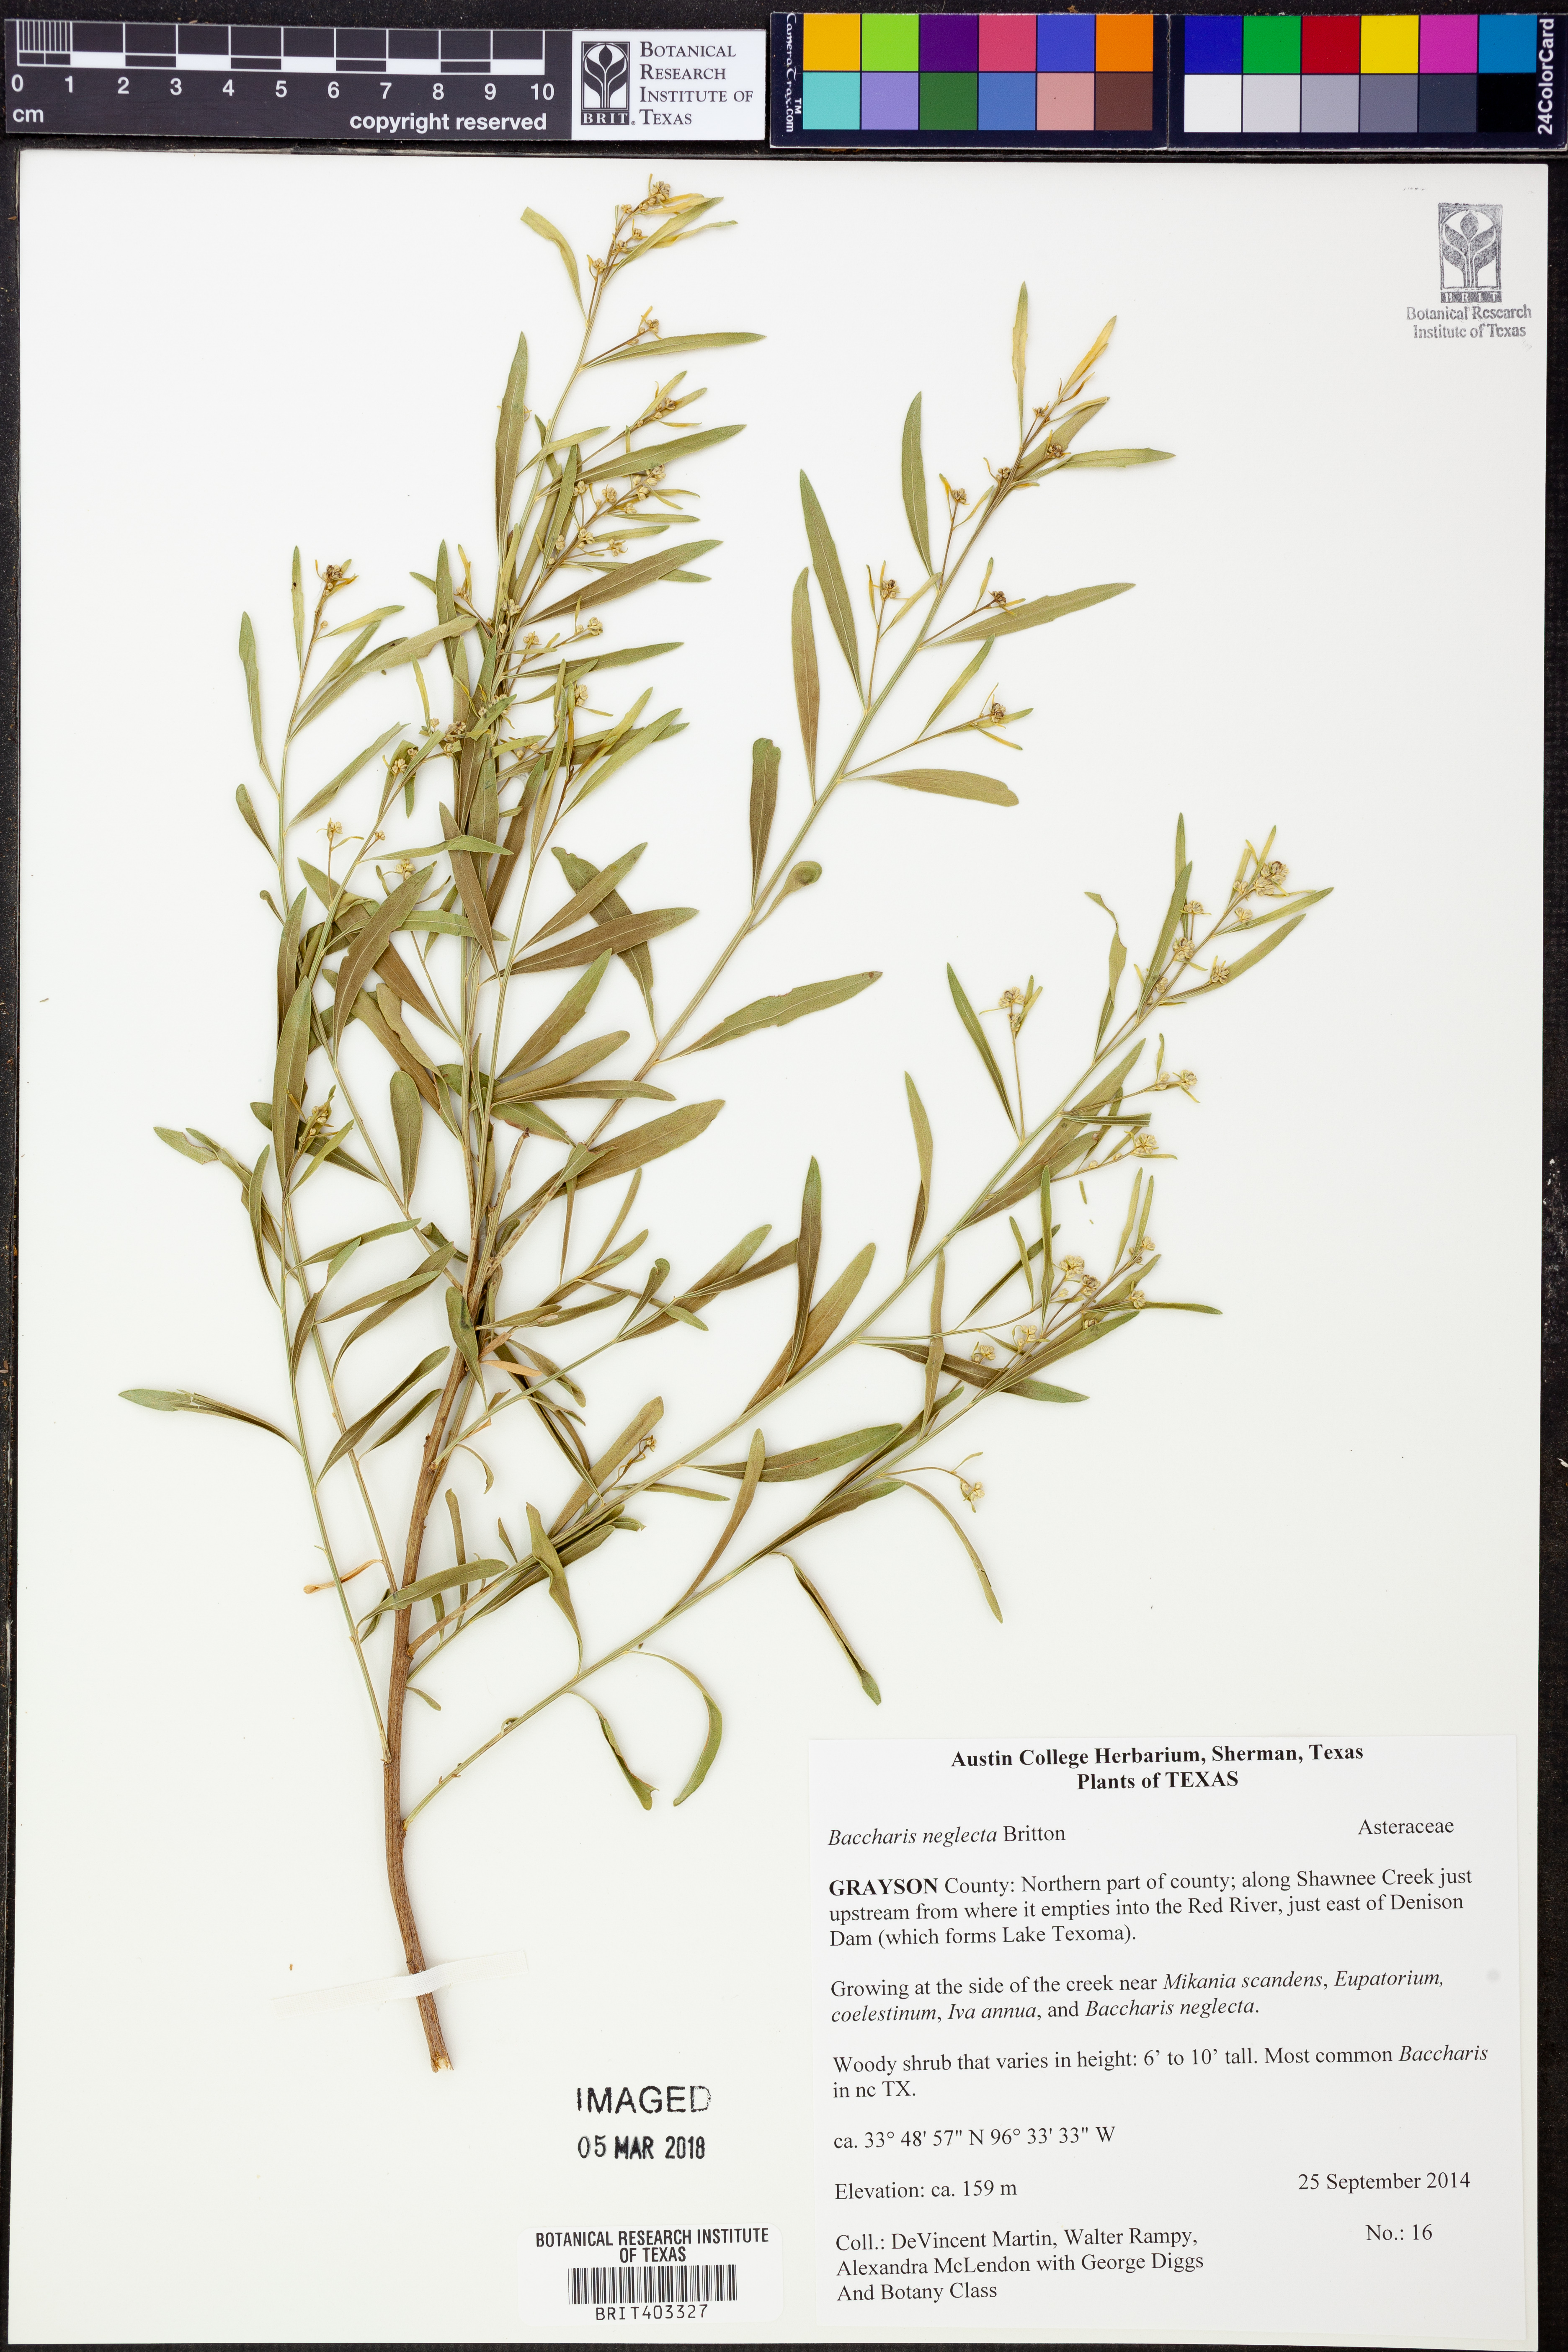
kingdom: Plantae
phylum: Tracheophyta
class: Magnoliopsida
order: Asterales
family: Asteraceae
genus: Baccharis
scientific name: Baccharis neglecta
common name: Roosevelt-weed
